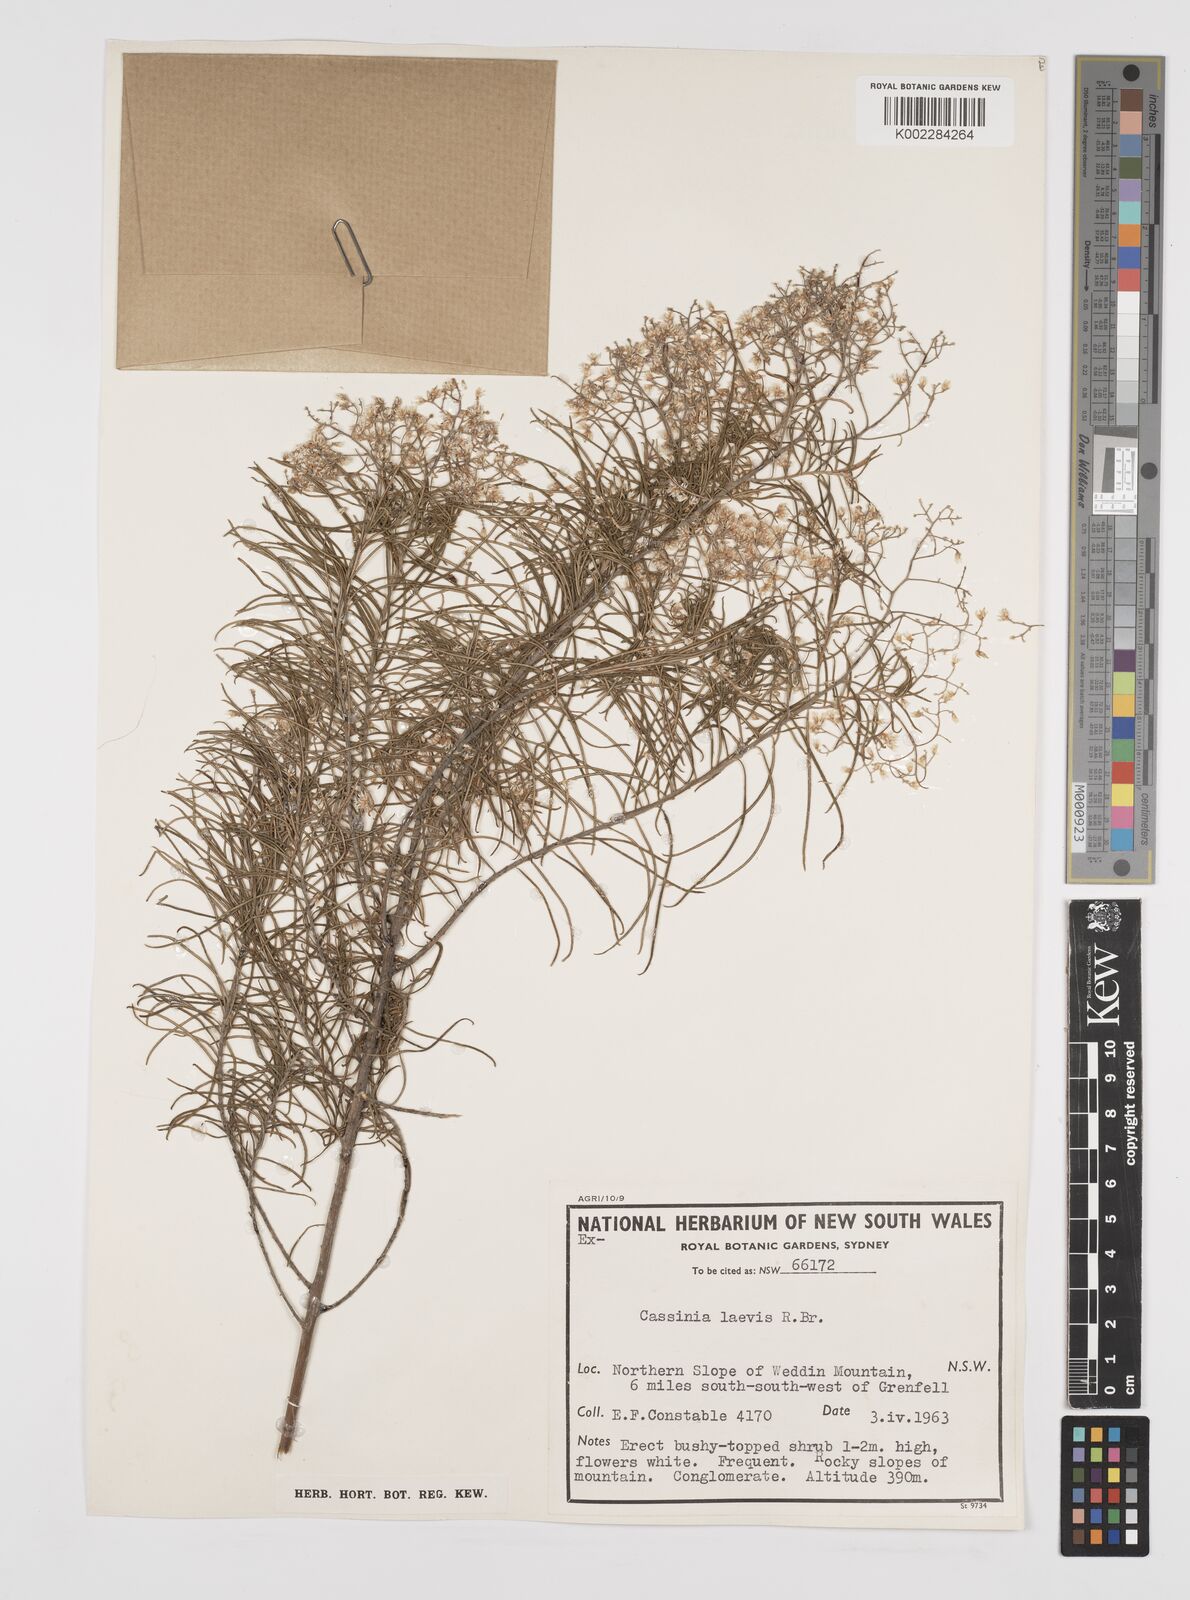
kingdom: Plantae
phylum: Tracheophyta
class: Magnoliopsida
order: Asterales
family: Asteraceae
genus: Cassinia
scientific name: Cassinia laevis
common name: Coughbush
